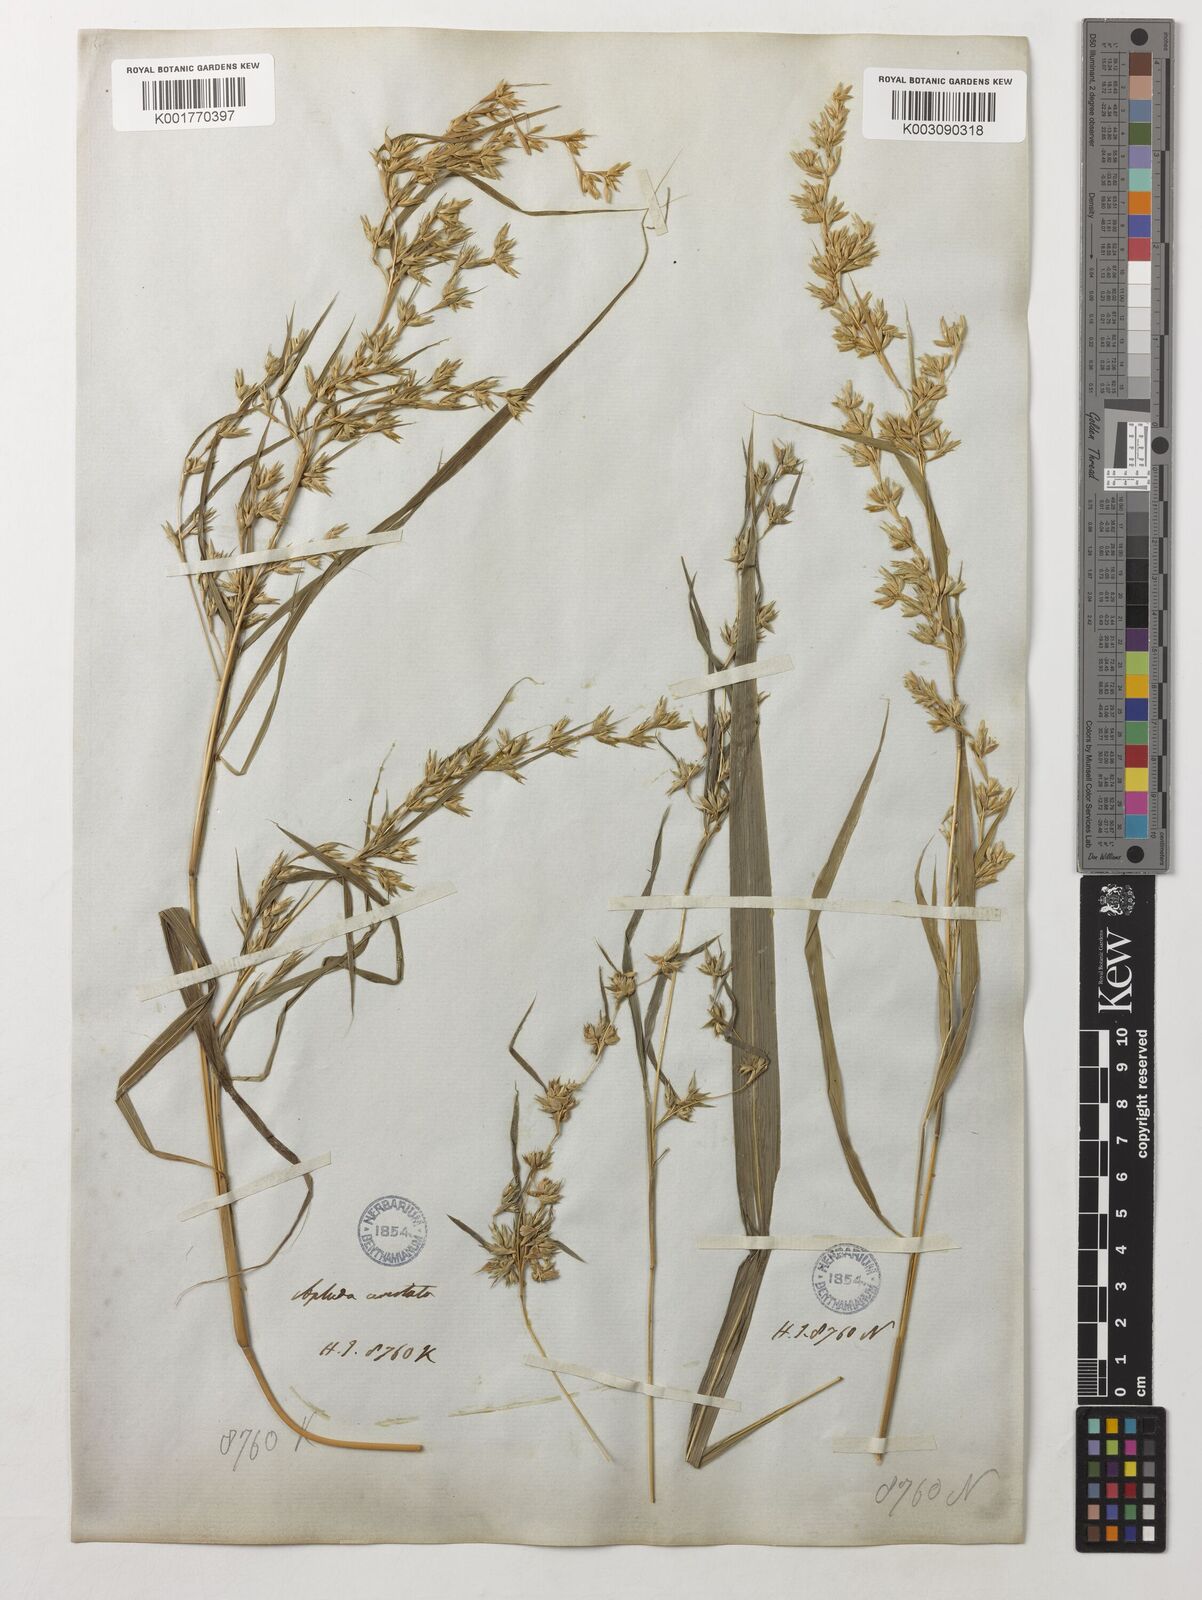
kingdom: Plantae
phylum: Tracheophyta
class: Liliopsida
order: Poales
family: Poaceae
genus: Apluda
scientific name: Apluda mutica
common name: Mauritian grass
